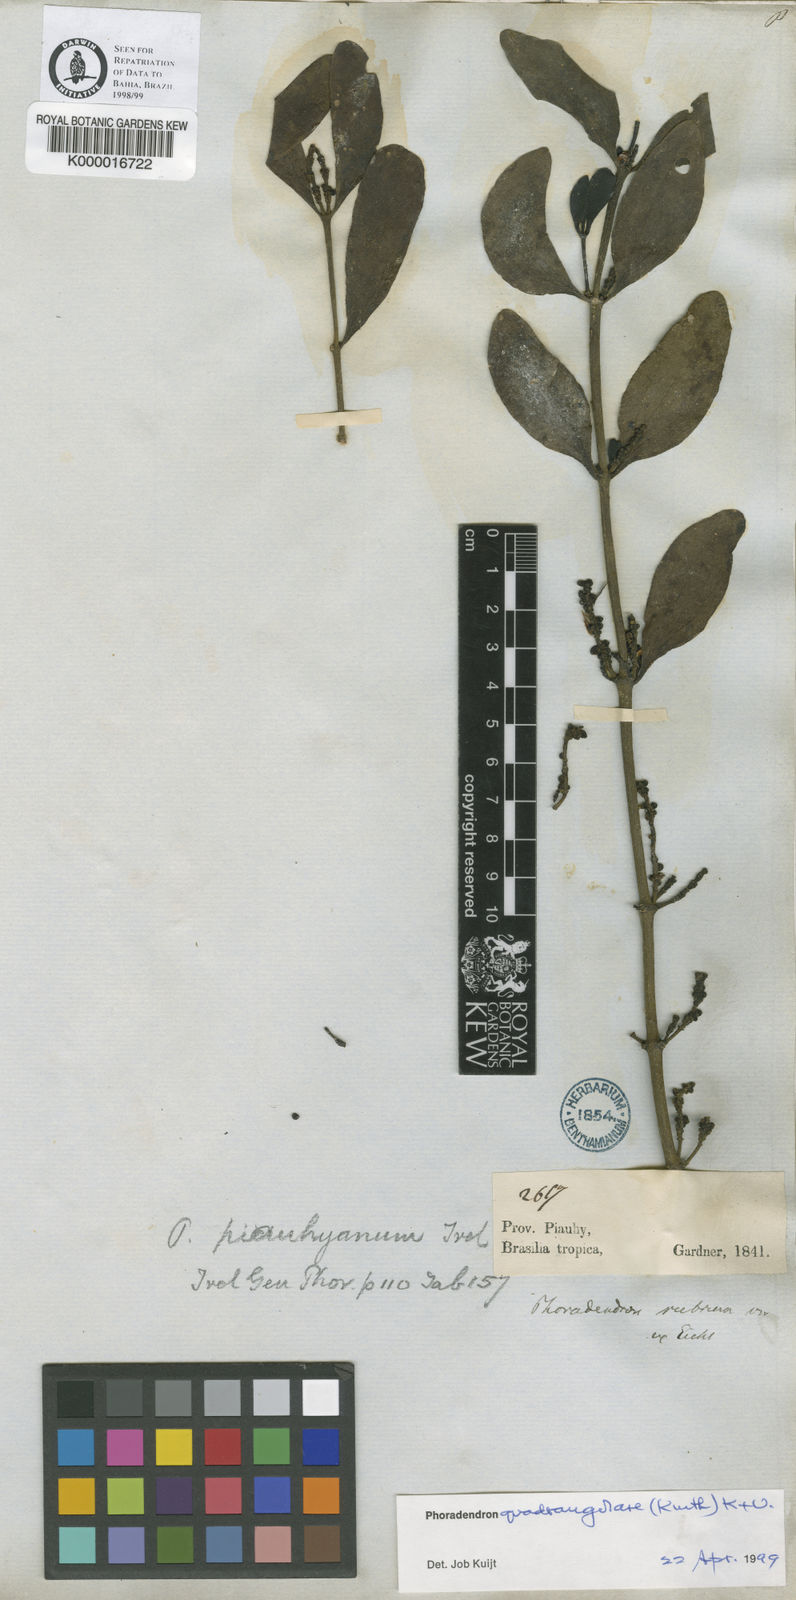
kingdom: Plantae
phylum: Tracheophyta
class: Magnoliopsida
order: Santalales
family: Viscaceae
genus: Phoradendron
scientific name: Phoradendron quadrangulare
